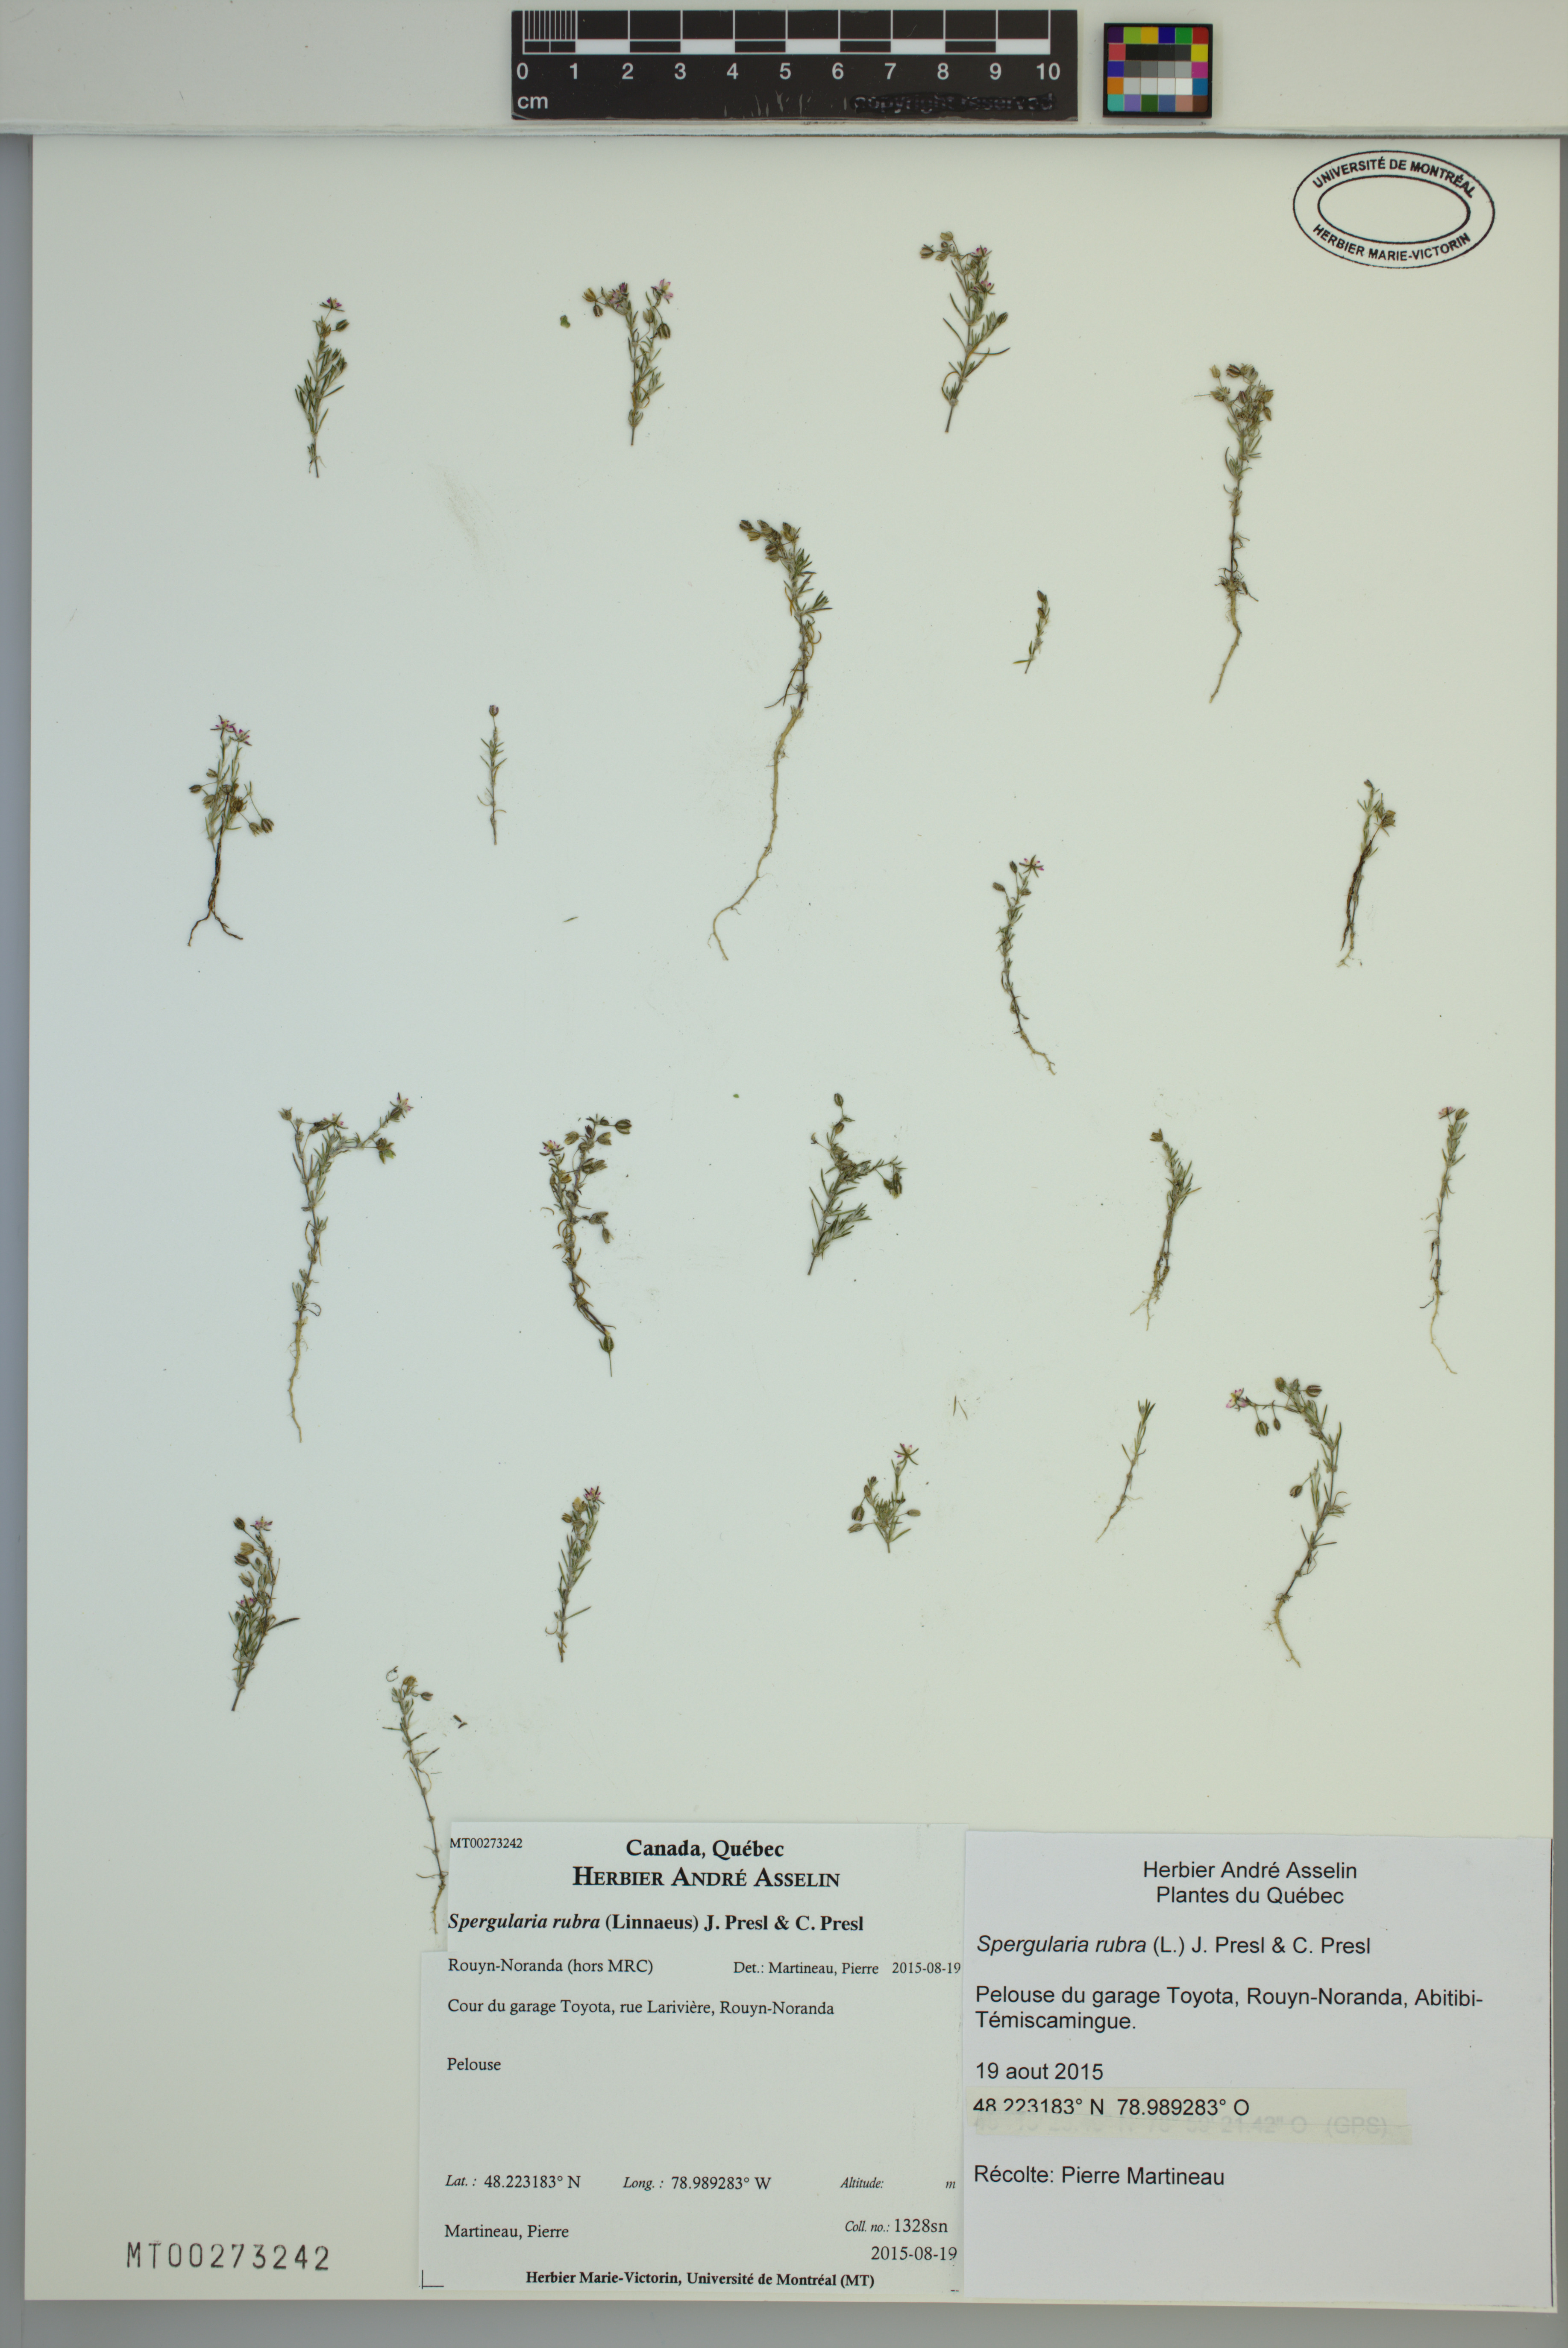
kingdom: Plantae
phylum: Tracheophyta
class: Magnoliopsida
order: Caryophyllales
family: Caryophyllaceae
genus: Spergularia
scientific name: Spergularia rubra
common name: Red sand-spurrey
